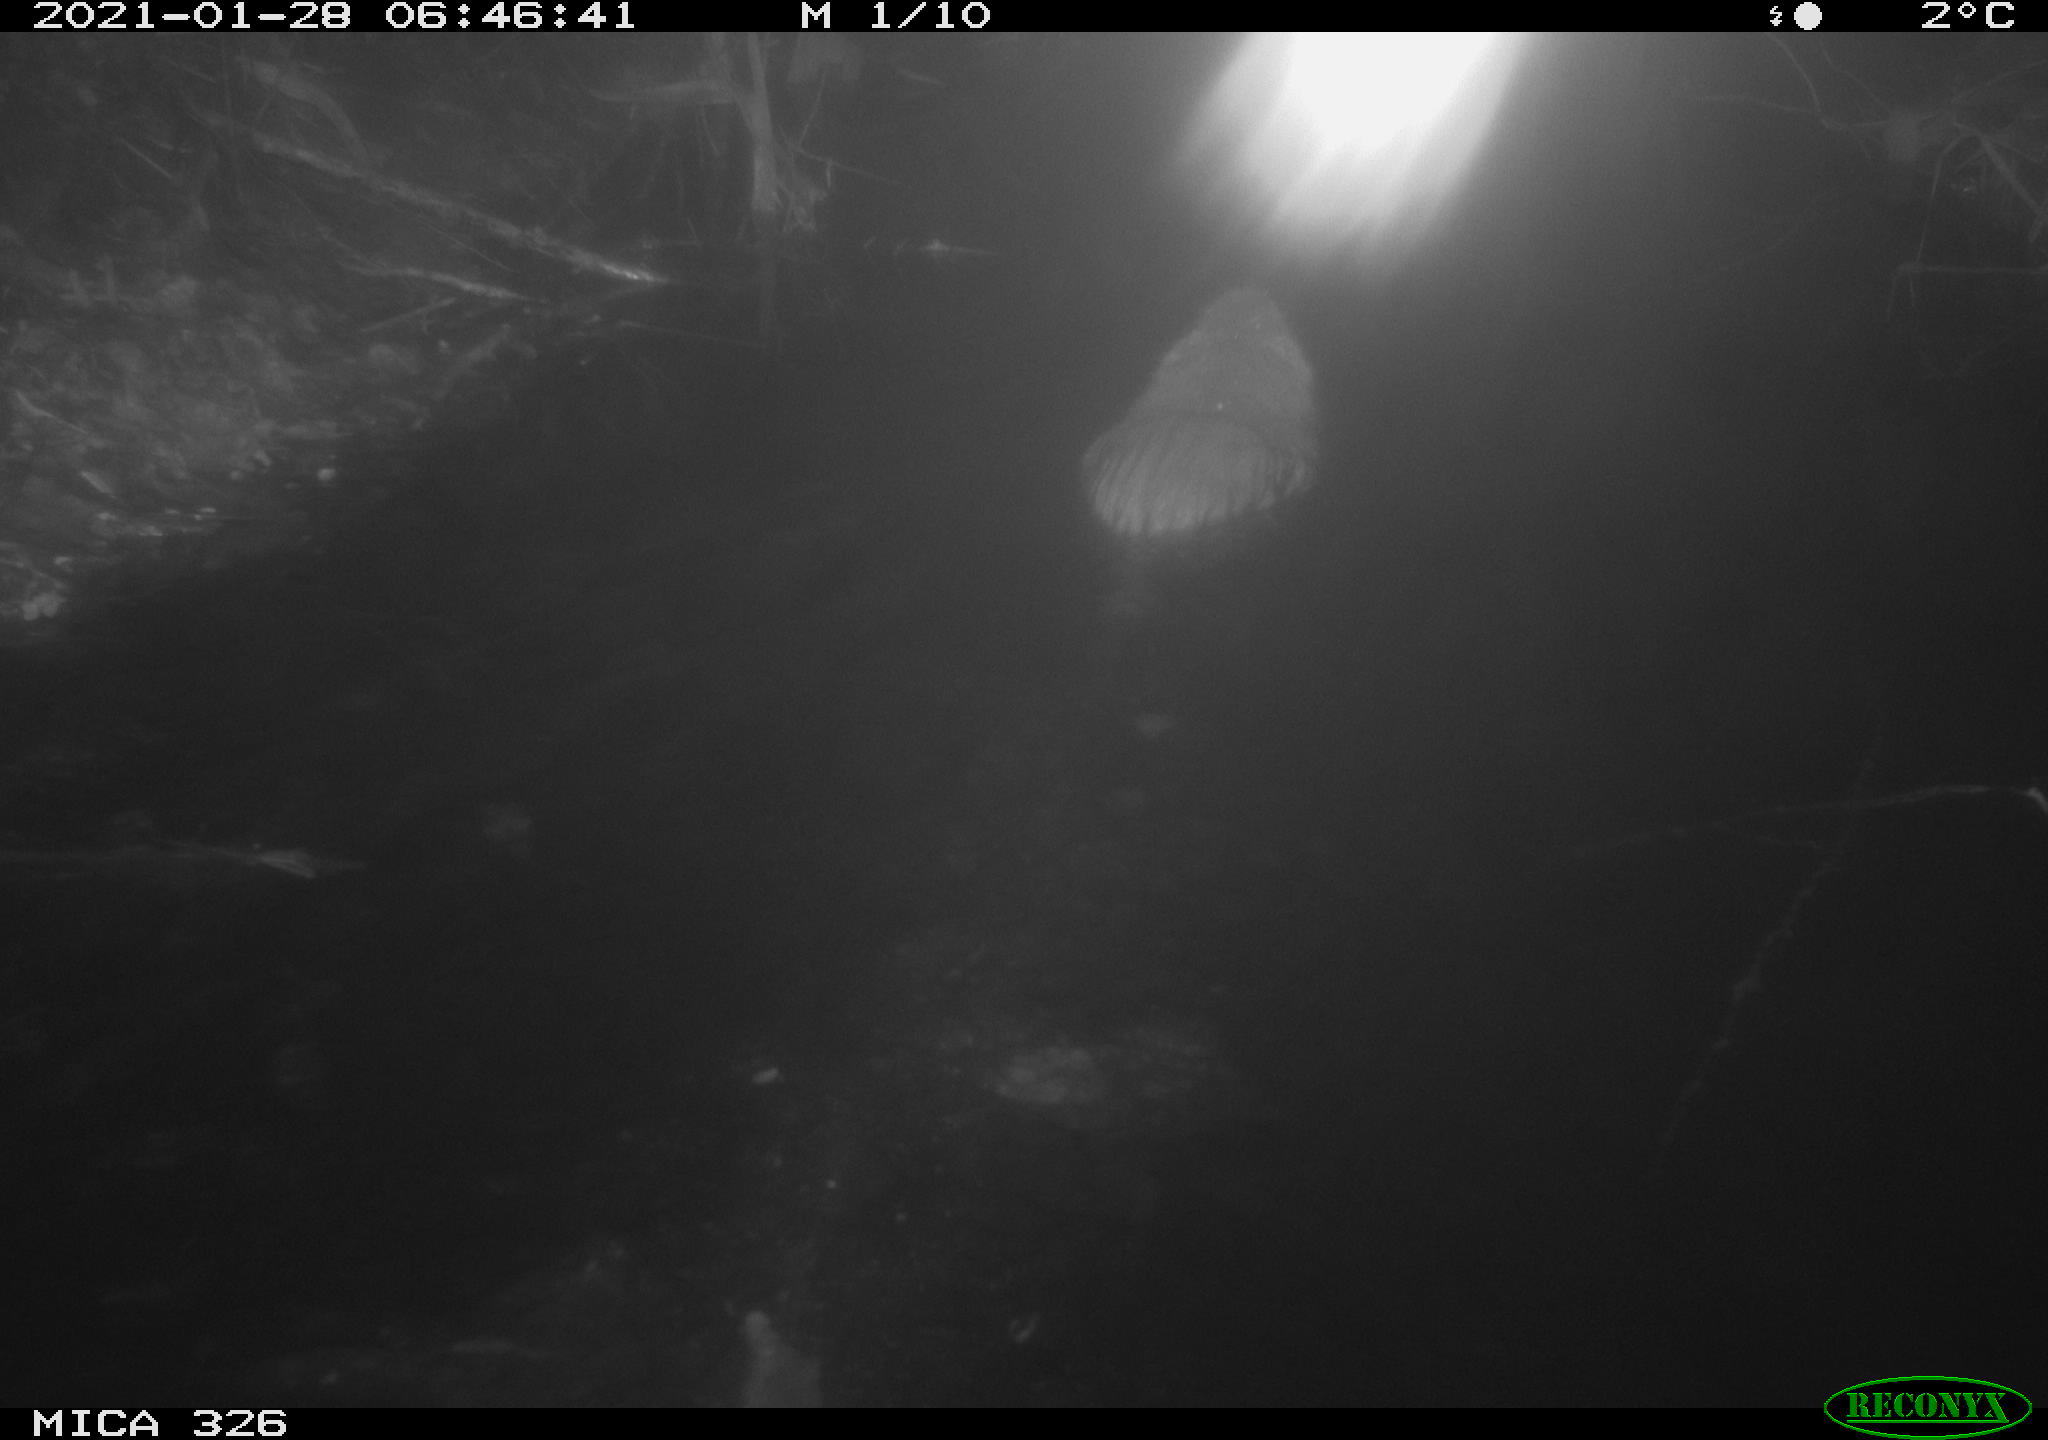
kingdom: Animalia
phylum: Chordata
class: Mammalia
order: Rodentia
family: Myocastoridae
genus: Myocastor
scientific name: Myocastor coypus
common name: Coypu
